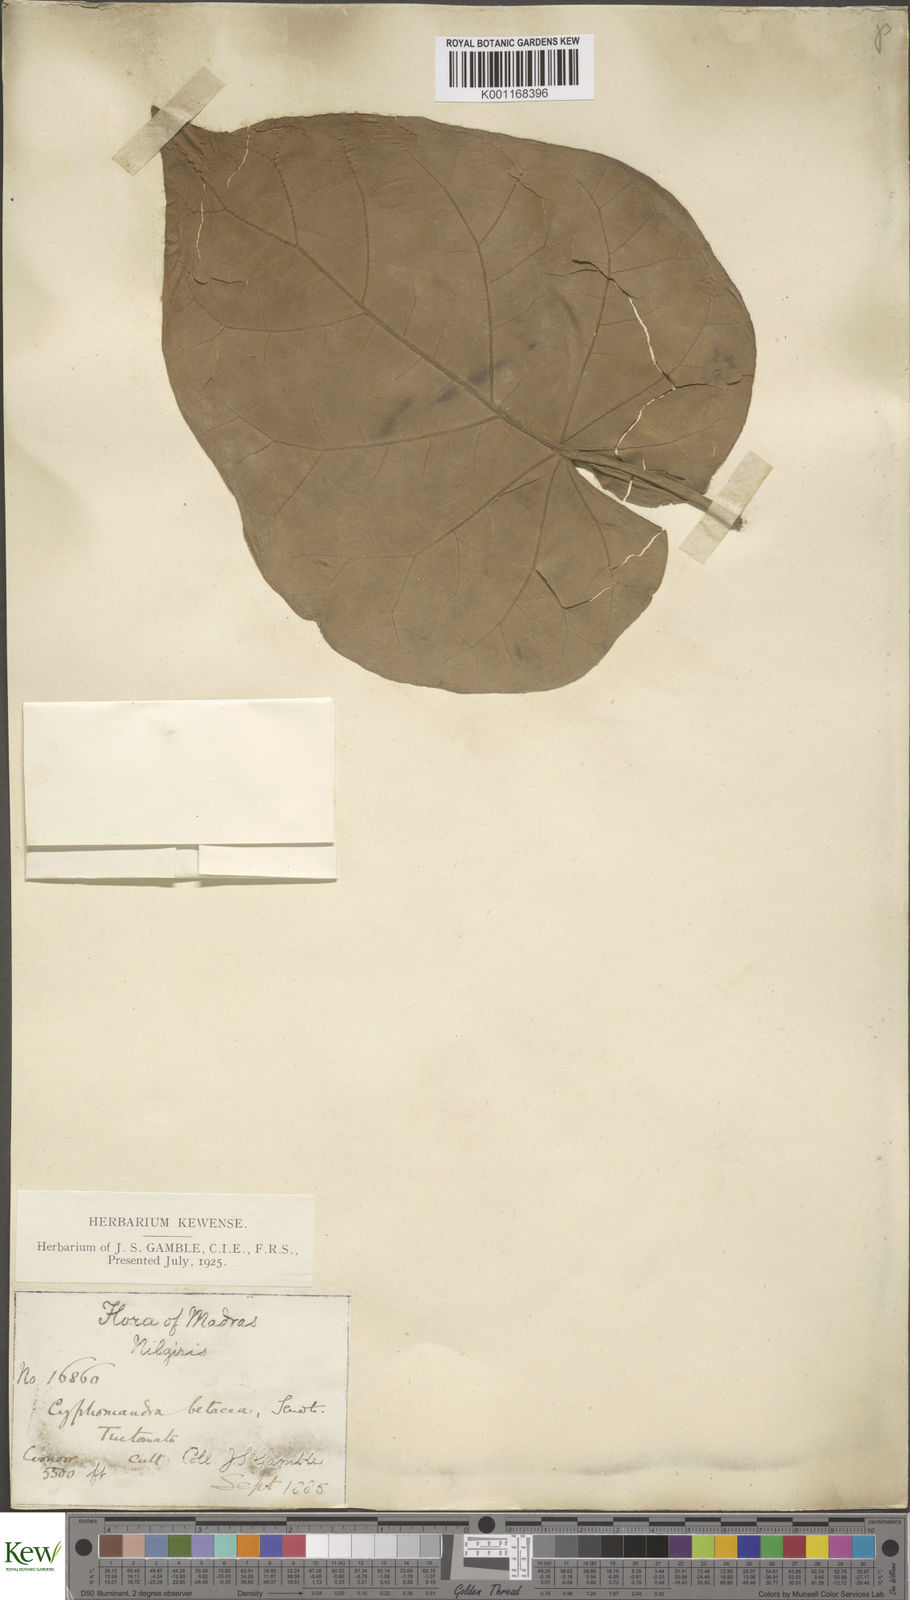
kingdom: Plantae
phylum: Tracheophyta
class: Magnoliopsida
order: Solanales
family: Solanaceae
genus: Solanum
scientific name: Solanum betaceum
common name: Tamarillo
